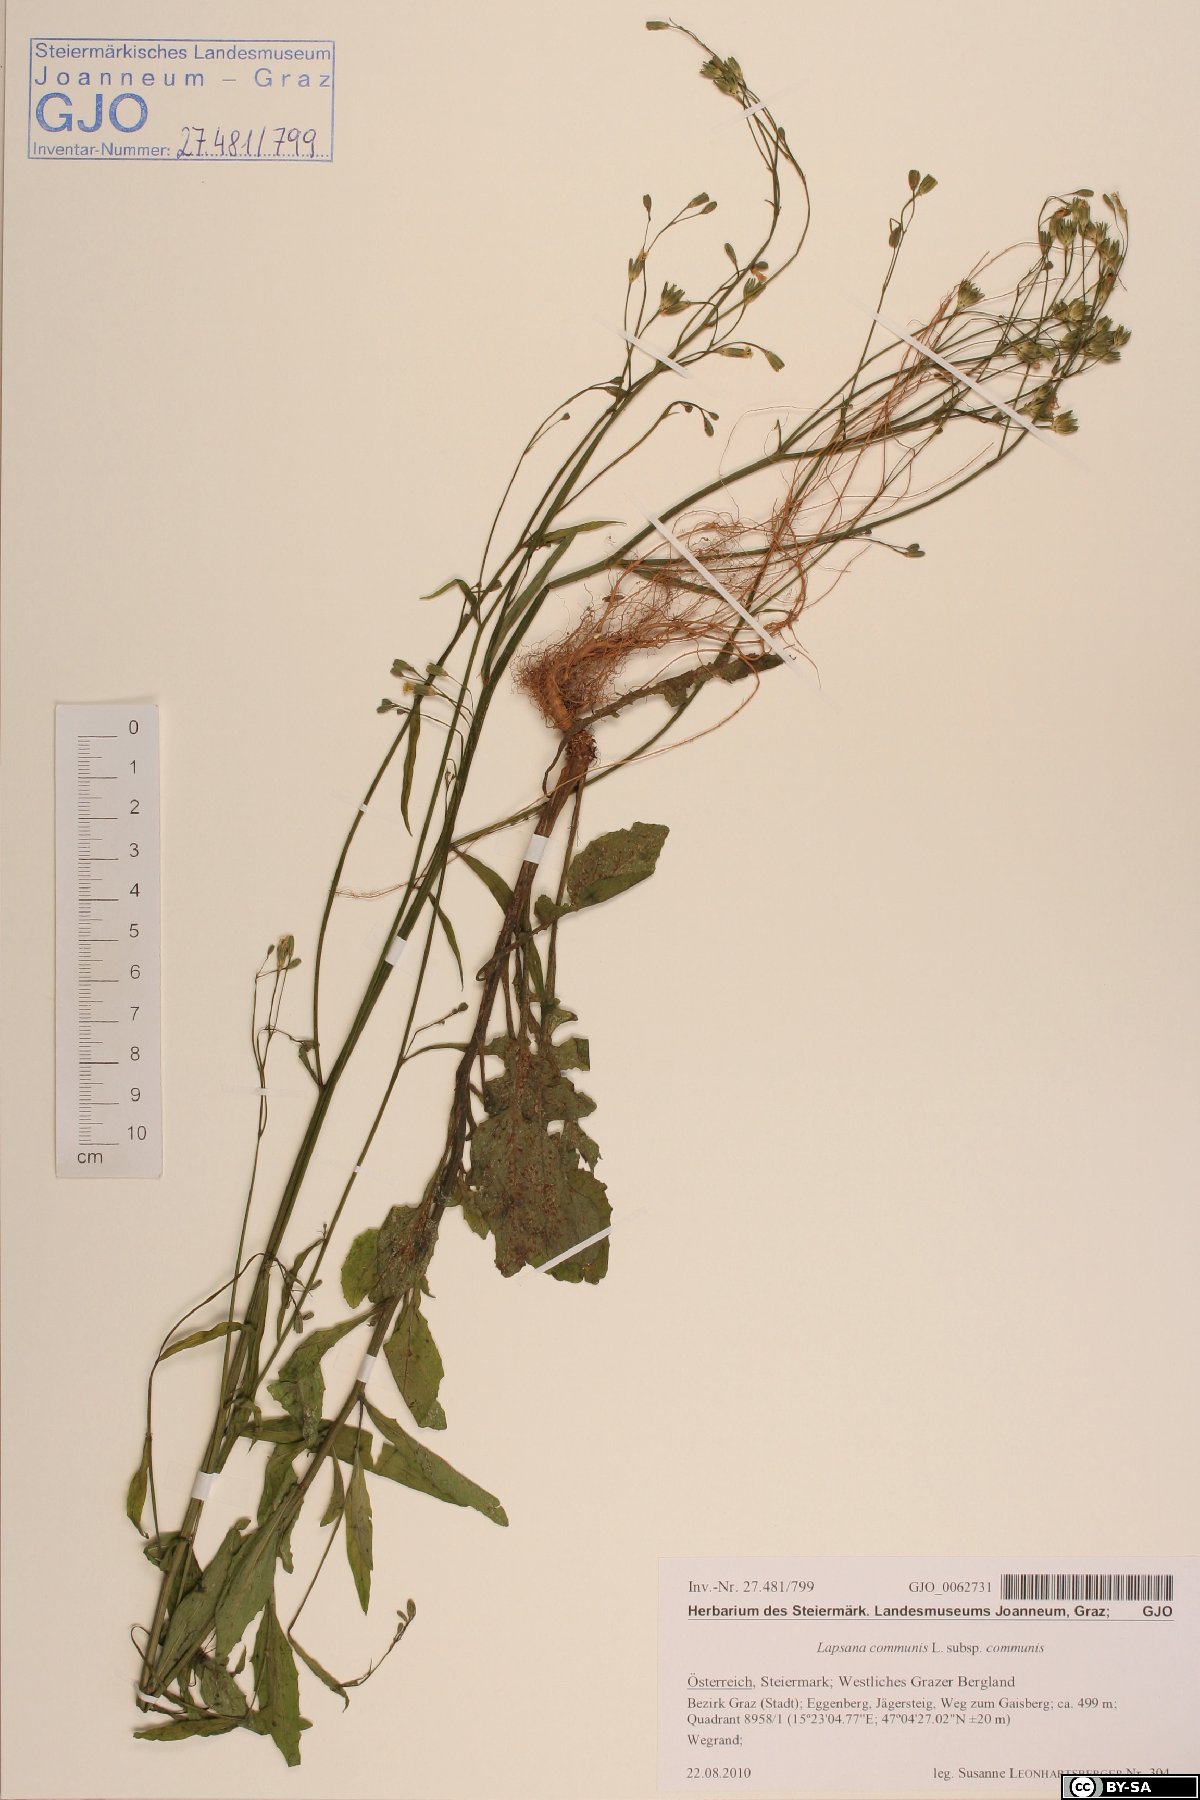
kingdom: Plantae
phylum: Tracheophyta
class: Magnoliopsida
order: Asterales
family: Asteraceae
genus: Lapsana
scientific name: Lapsana communis
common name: Nipplewort
